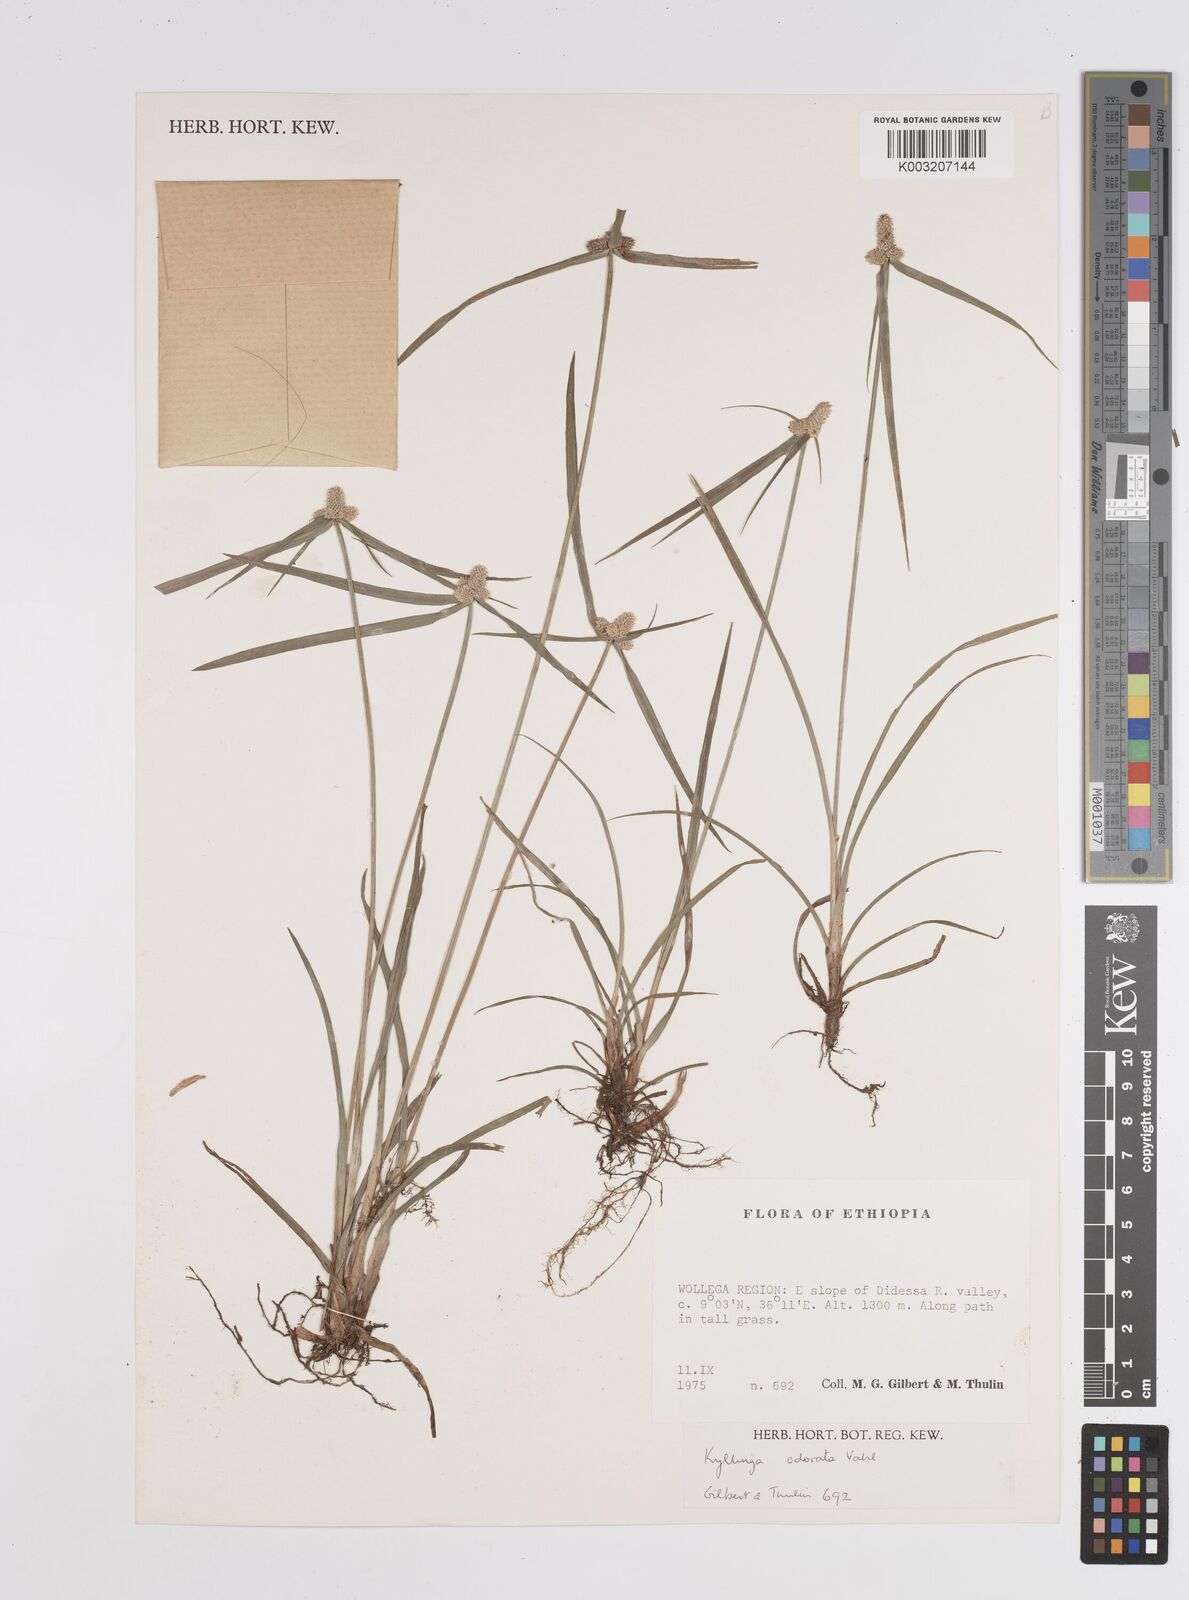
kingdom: Plantae
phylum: Tracheophyta
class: Liliopsida
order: Poales
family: Cyperaceae
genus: Cyperus
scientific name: Cyperus
